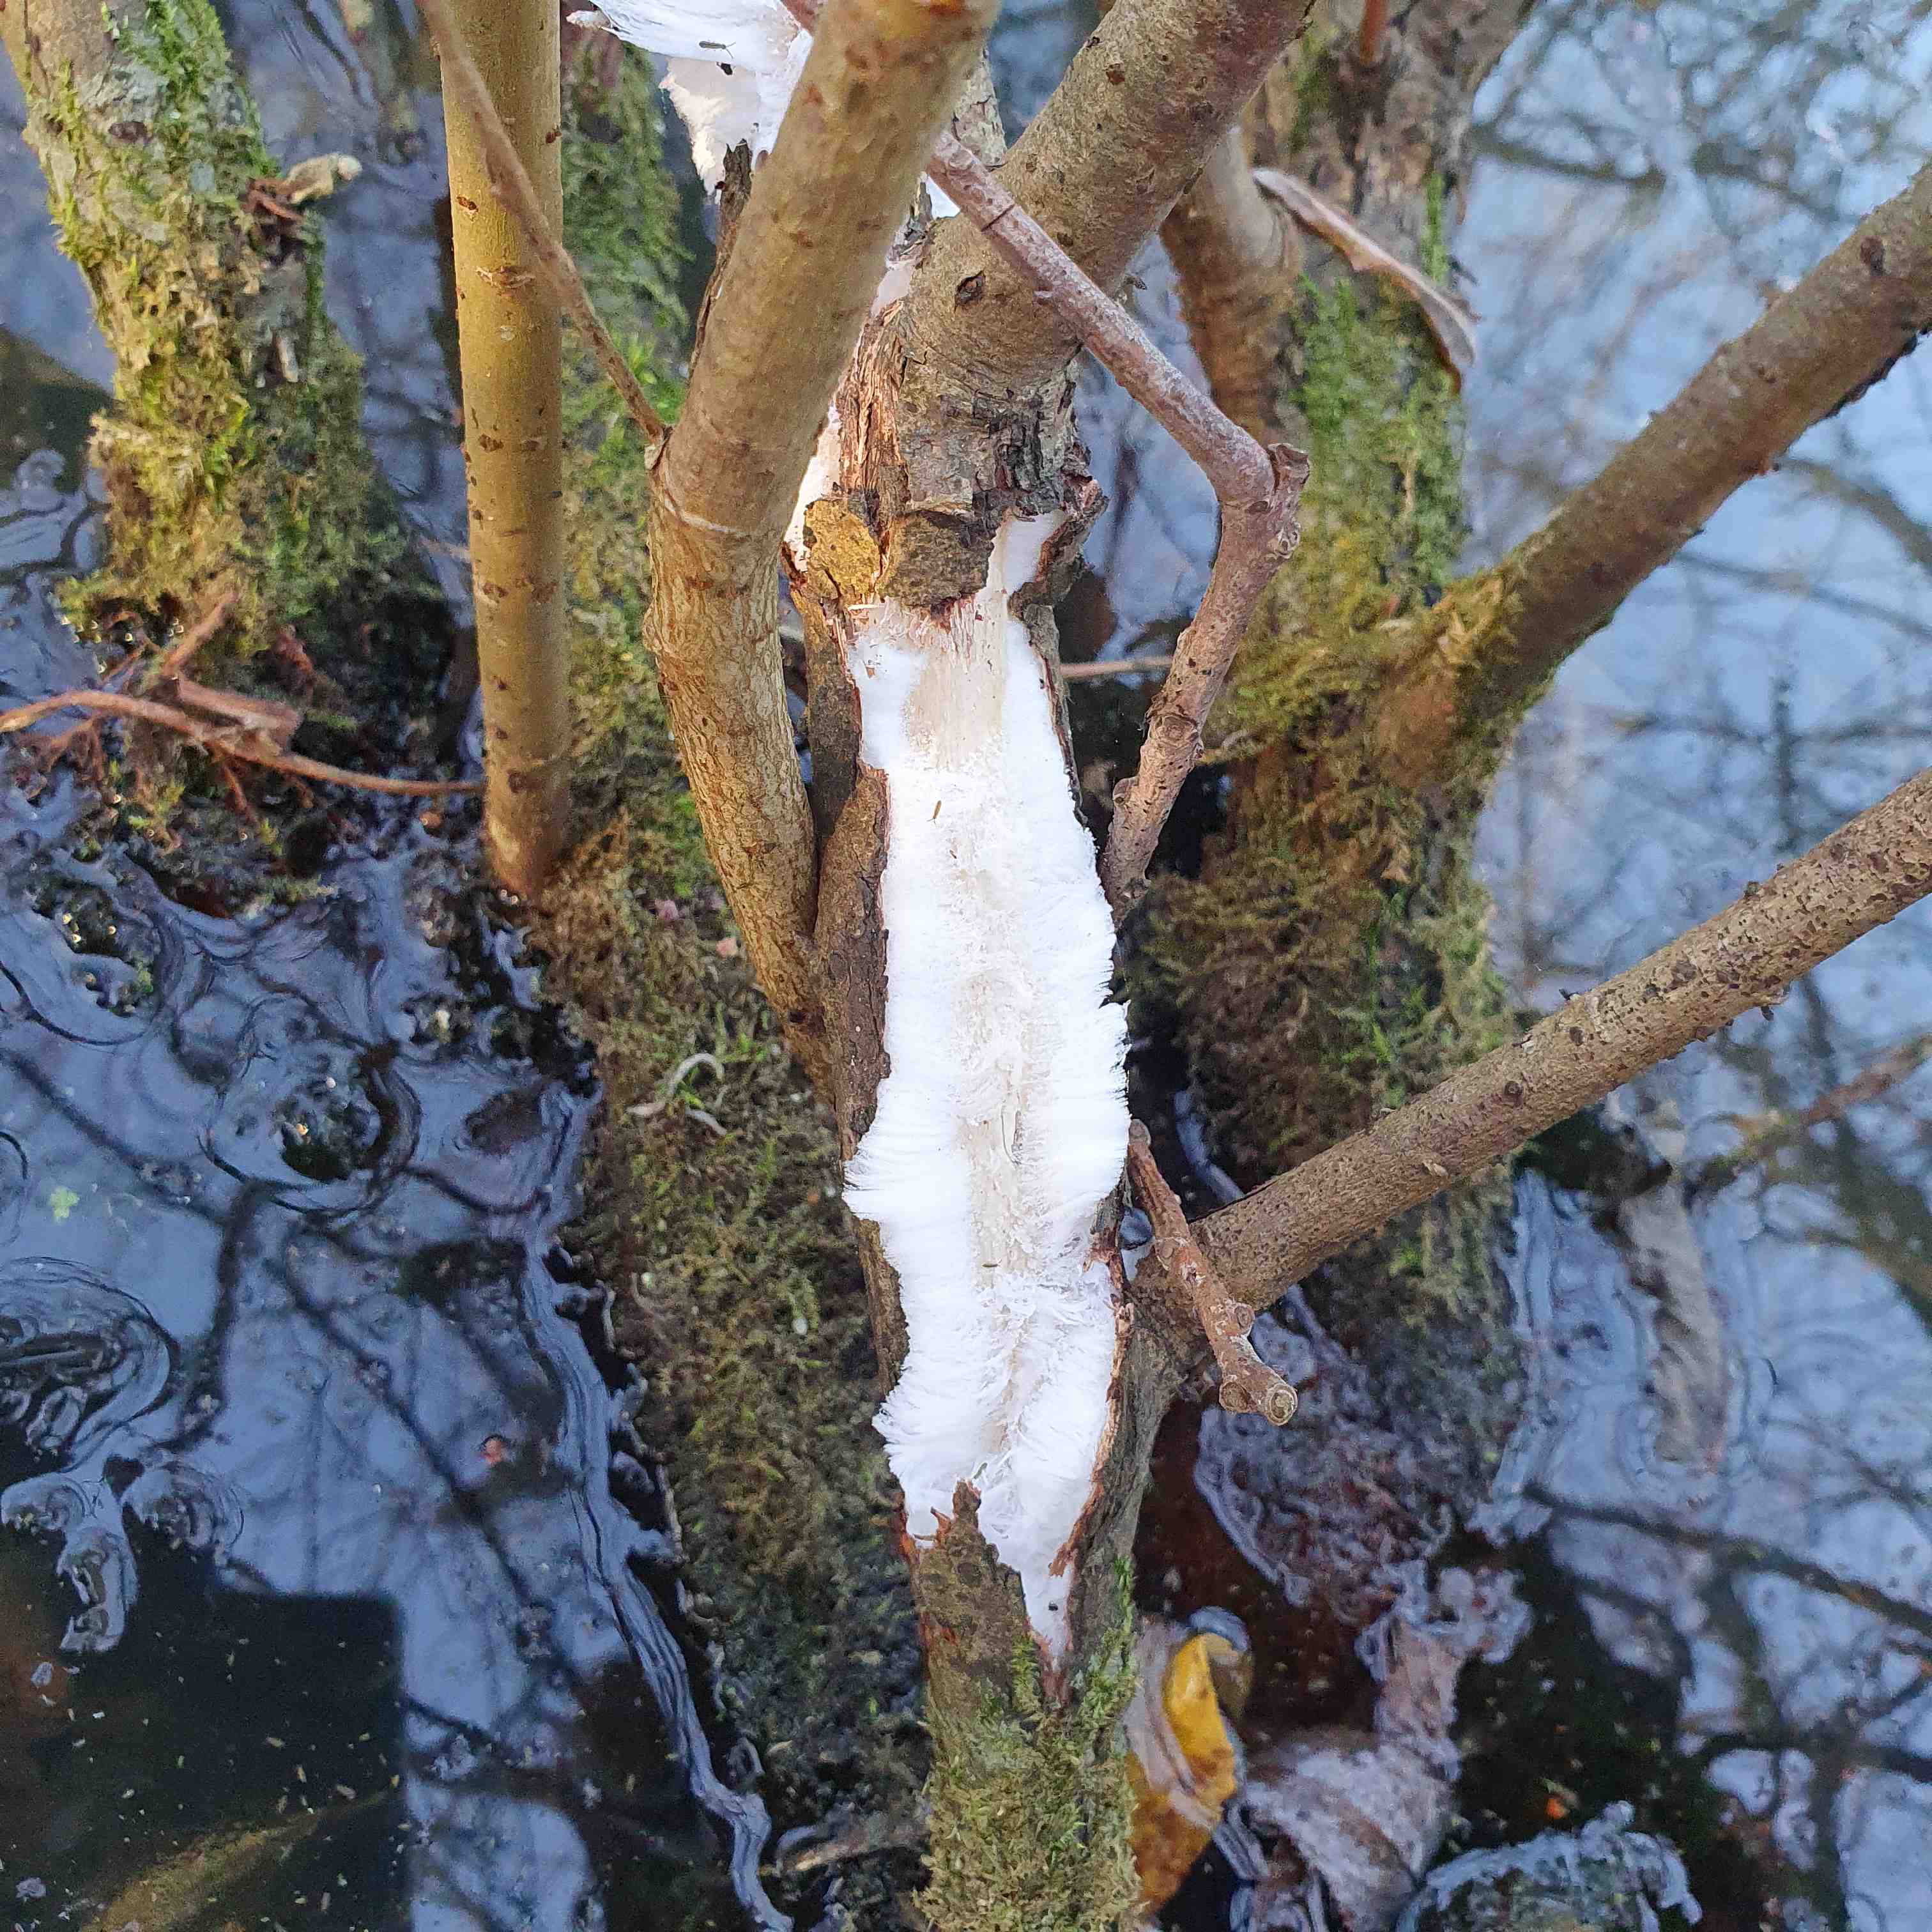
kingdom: Fungi
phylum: Basidiomycota
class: Tremellomycetes
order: Tremellales
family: Exidiaceae
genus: Exidiopsis
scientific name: Exidiopsis effusa
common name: smuk bævrehinde
